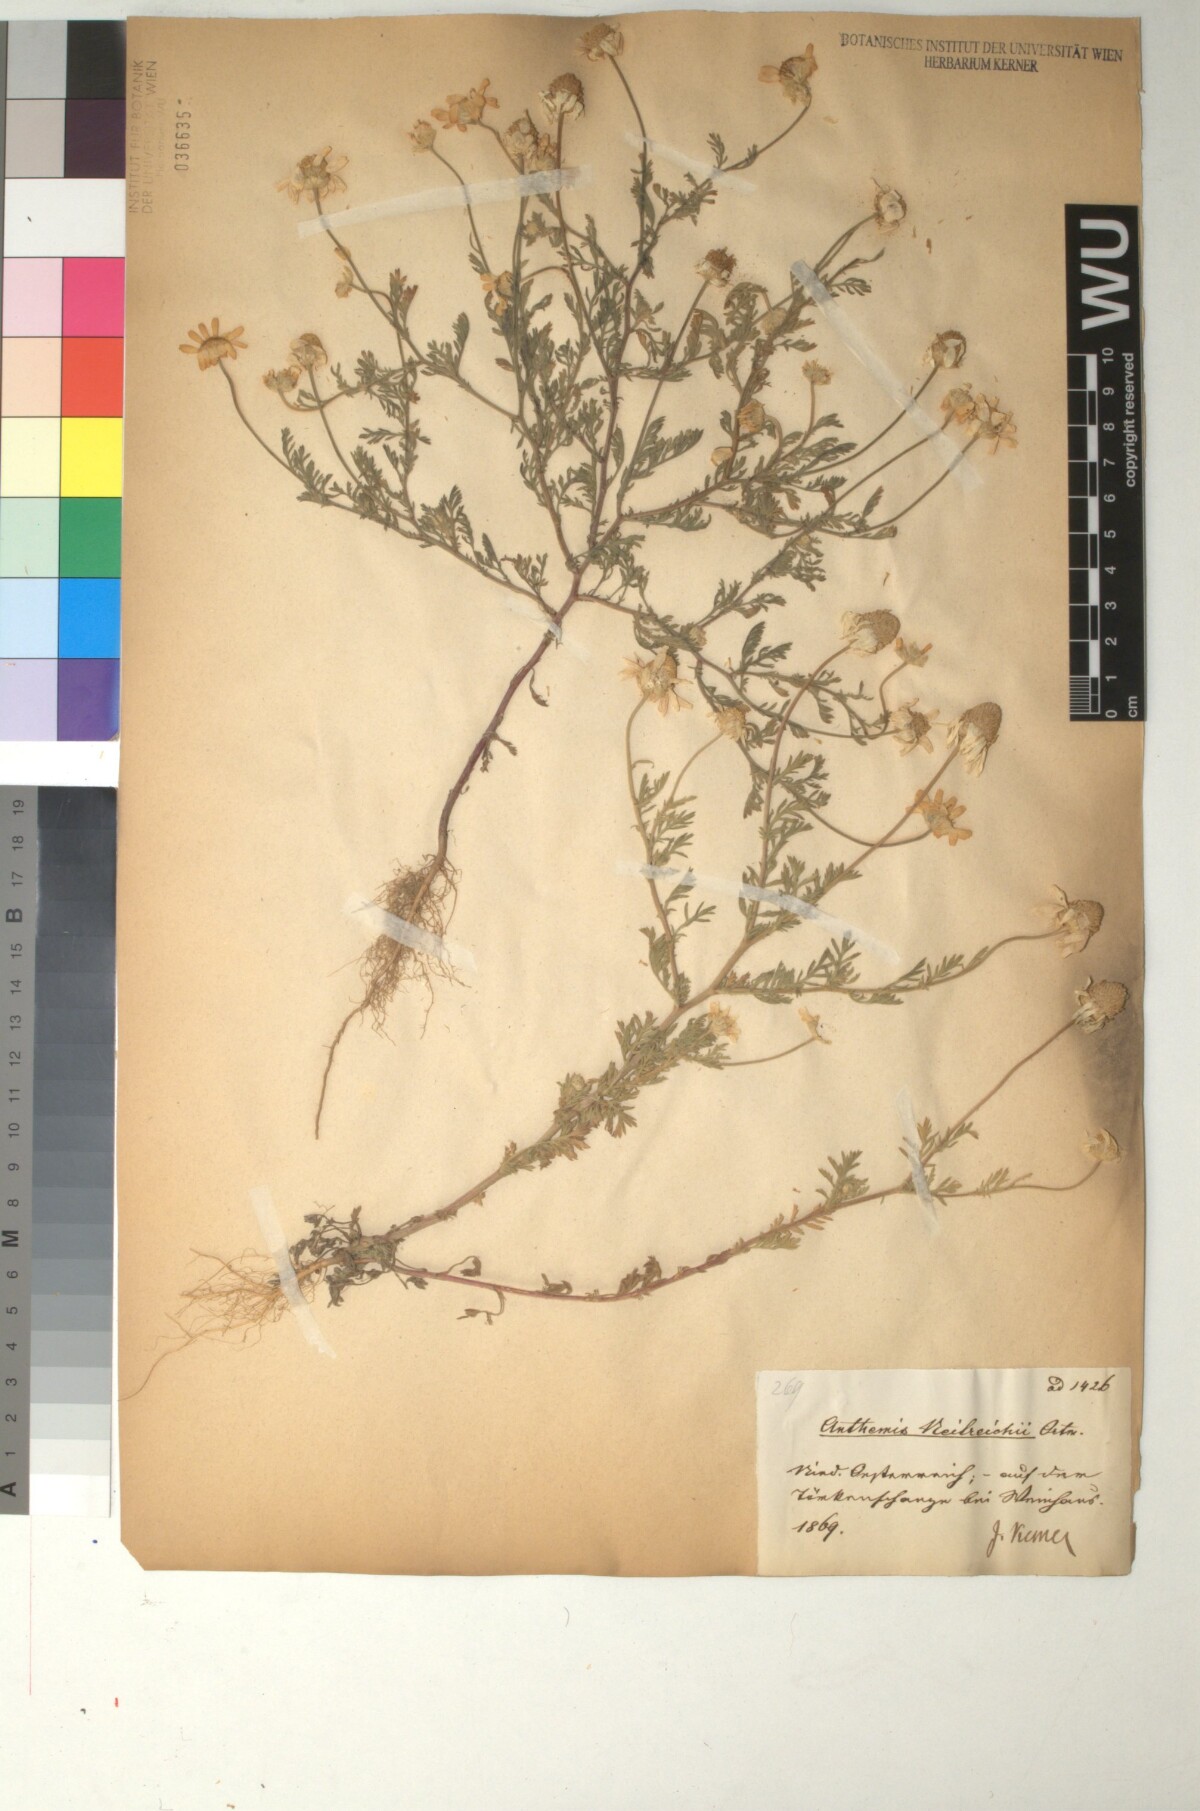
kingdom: Plantae
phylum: Tracheophyta
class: Magnoliopsida
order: Asterales
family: Asteraceae
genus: Anthemis
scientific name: Anthemis ruthenica
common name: Eastern chamomile
